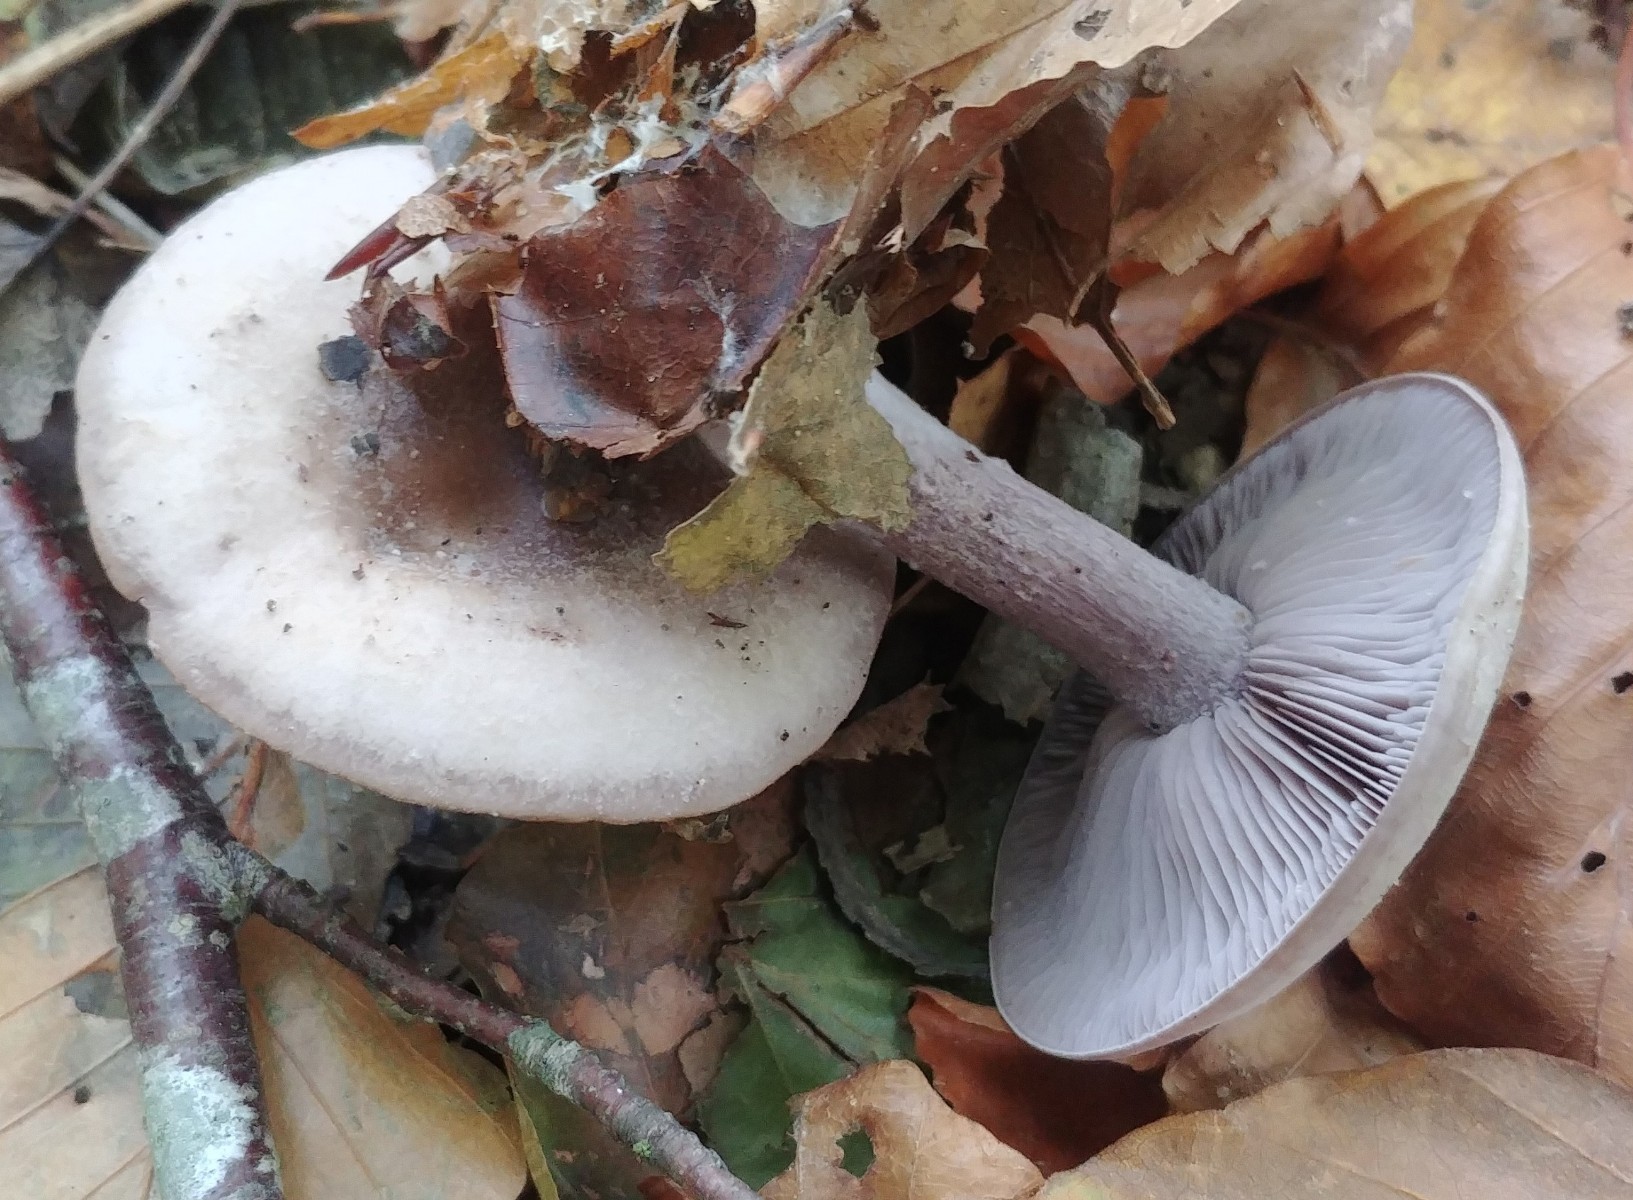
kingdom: Fungi
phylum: Basidiomycota
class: Agaricomycetes
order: Agaricales
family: Tricholomataceae
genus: Lepista
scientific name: Lepista nuda
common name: violet hekseringshat
